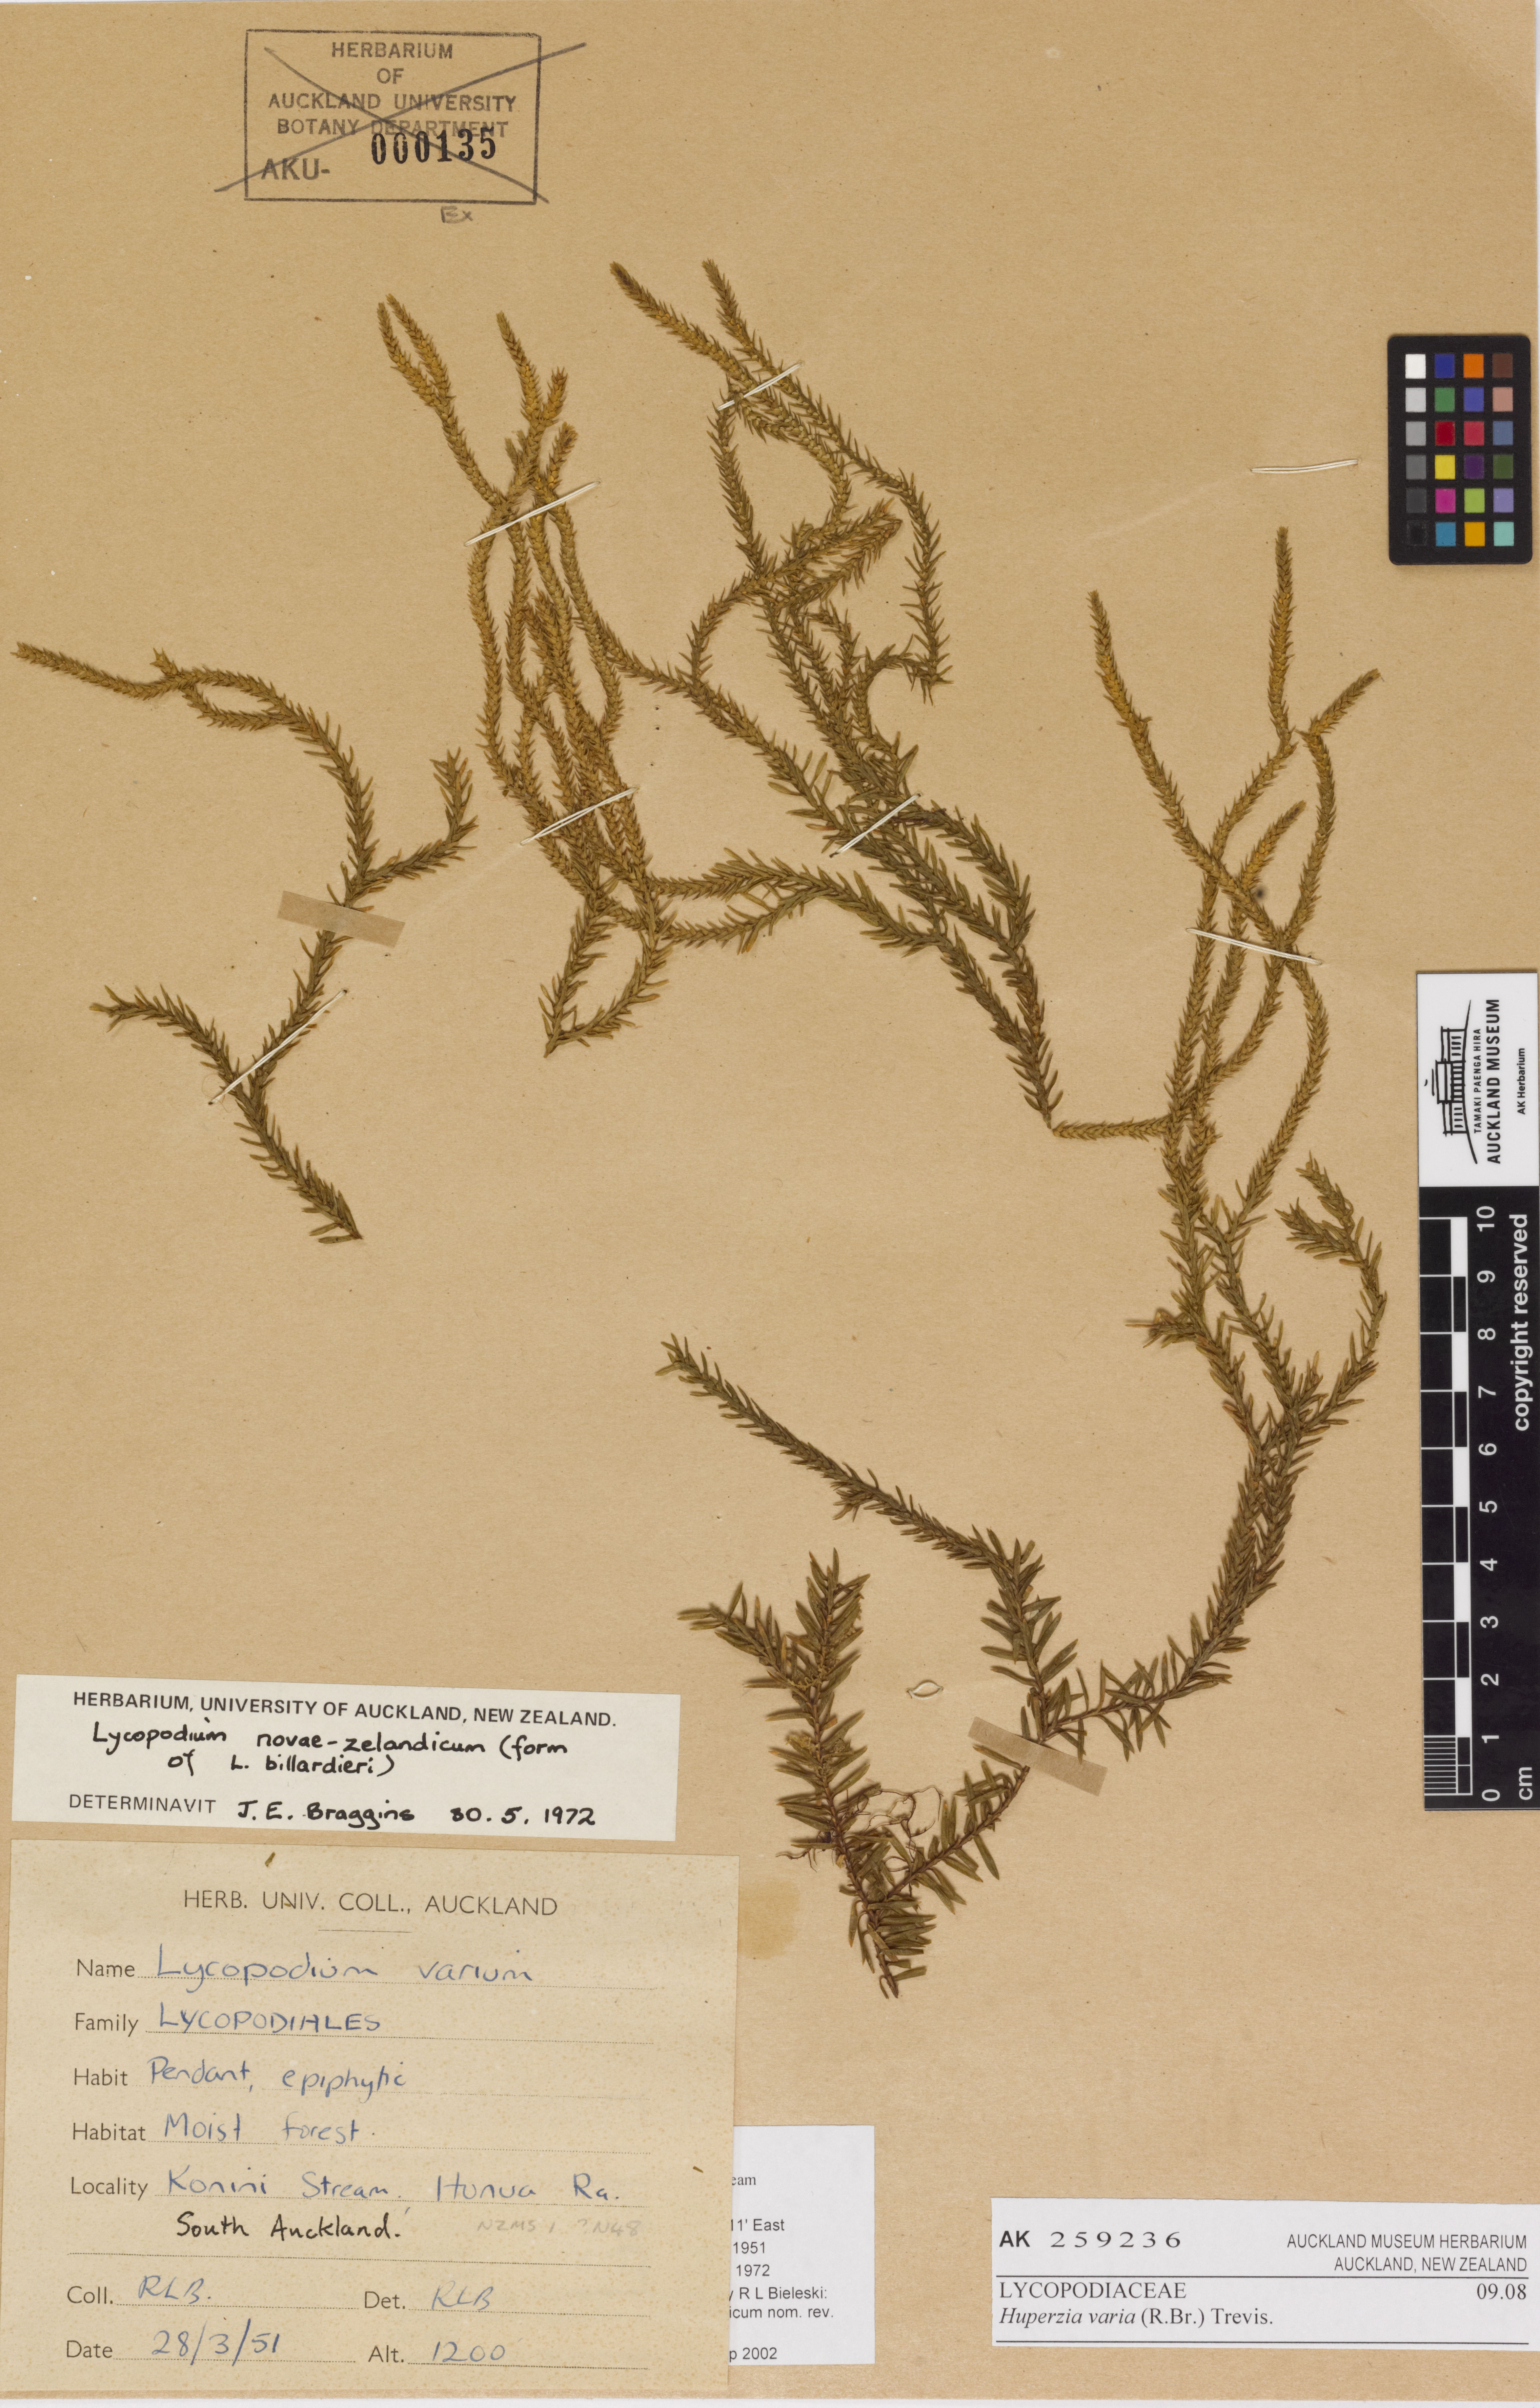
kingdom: Plantae
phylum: Tracheophyta
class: Lycopodiopsida
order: Lycopodiales
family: Lycopodiaceae
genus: Phlegmariurus
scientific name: Phlegmariurus varius
